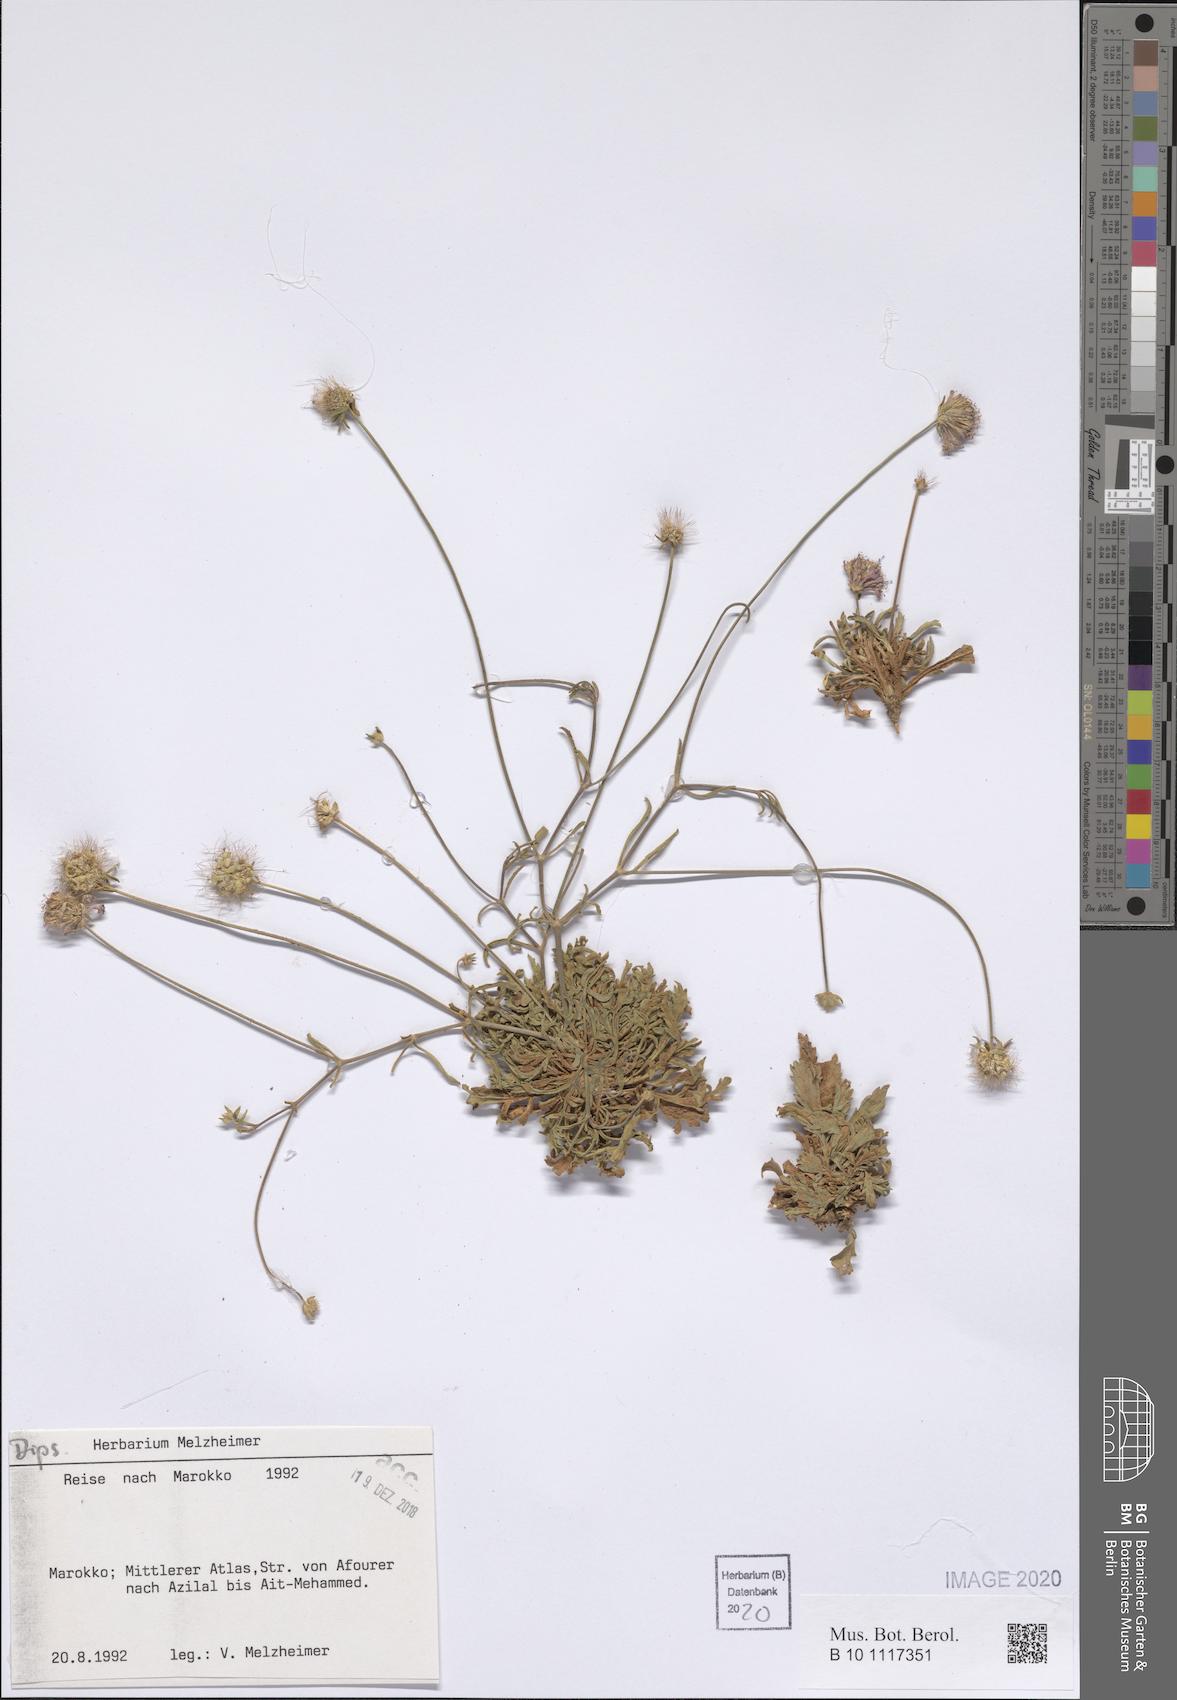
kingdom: Plantae
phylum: Tracheophyta
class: Magnoliopsida
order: Dipsacales
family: Dipsacaceae
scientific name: Dipsacaceae
